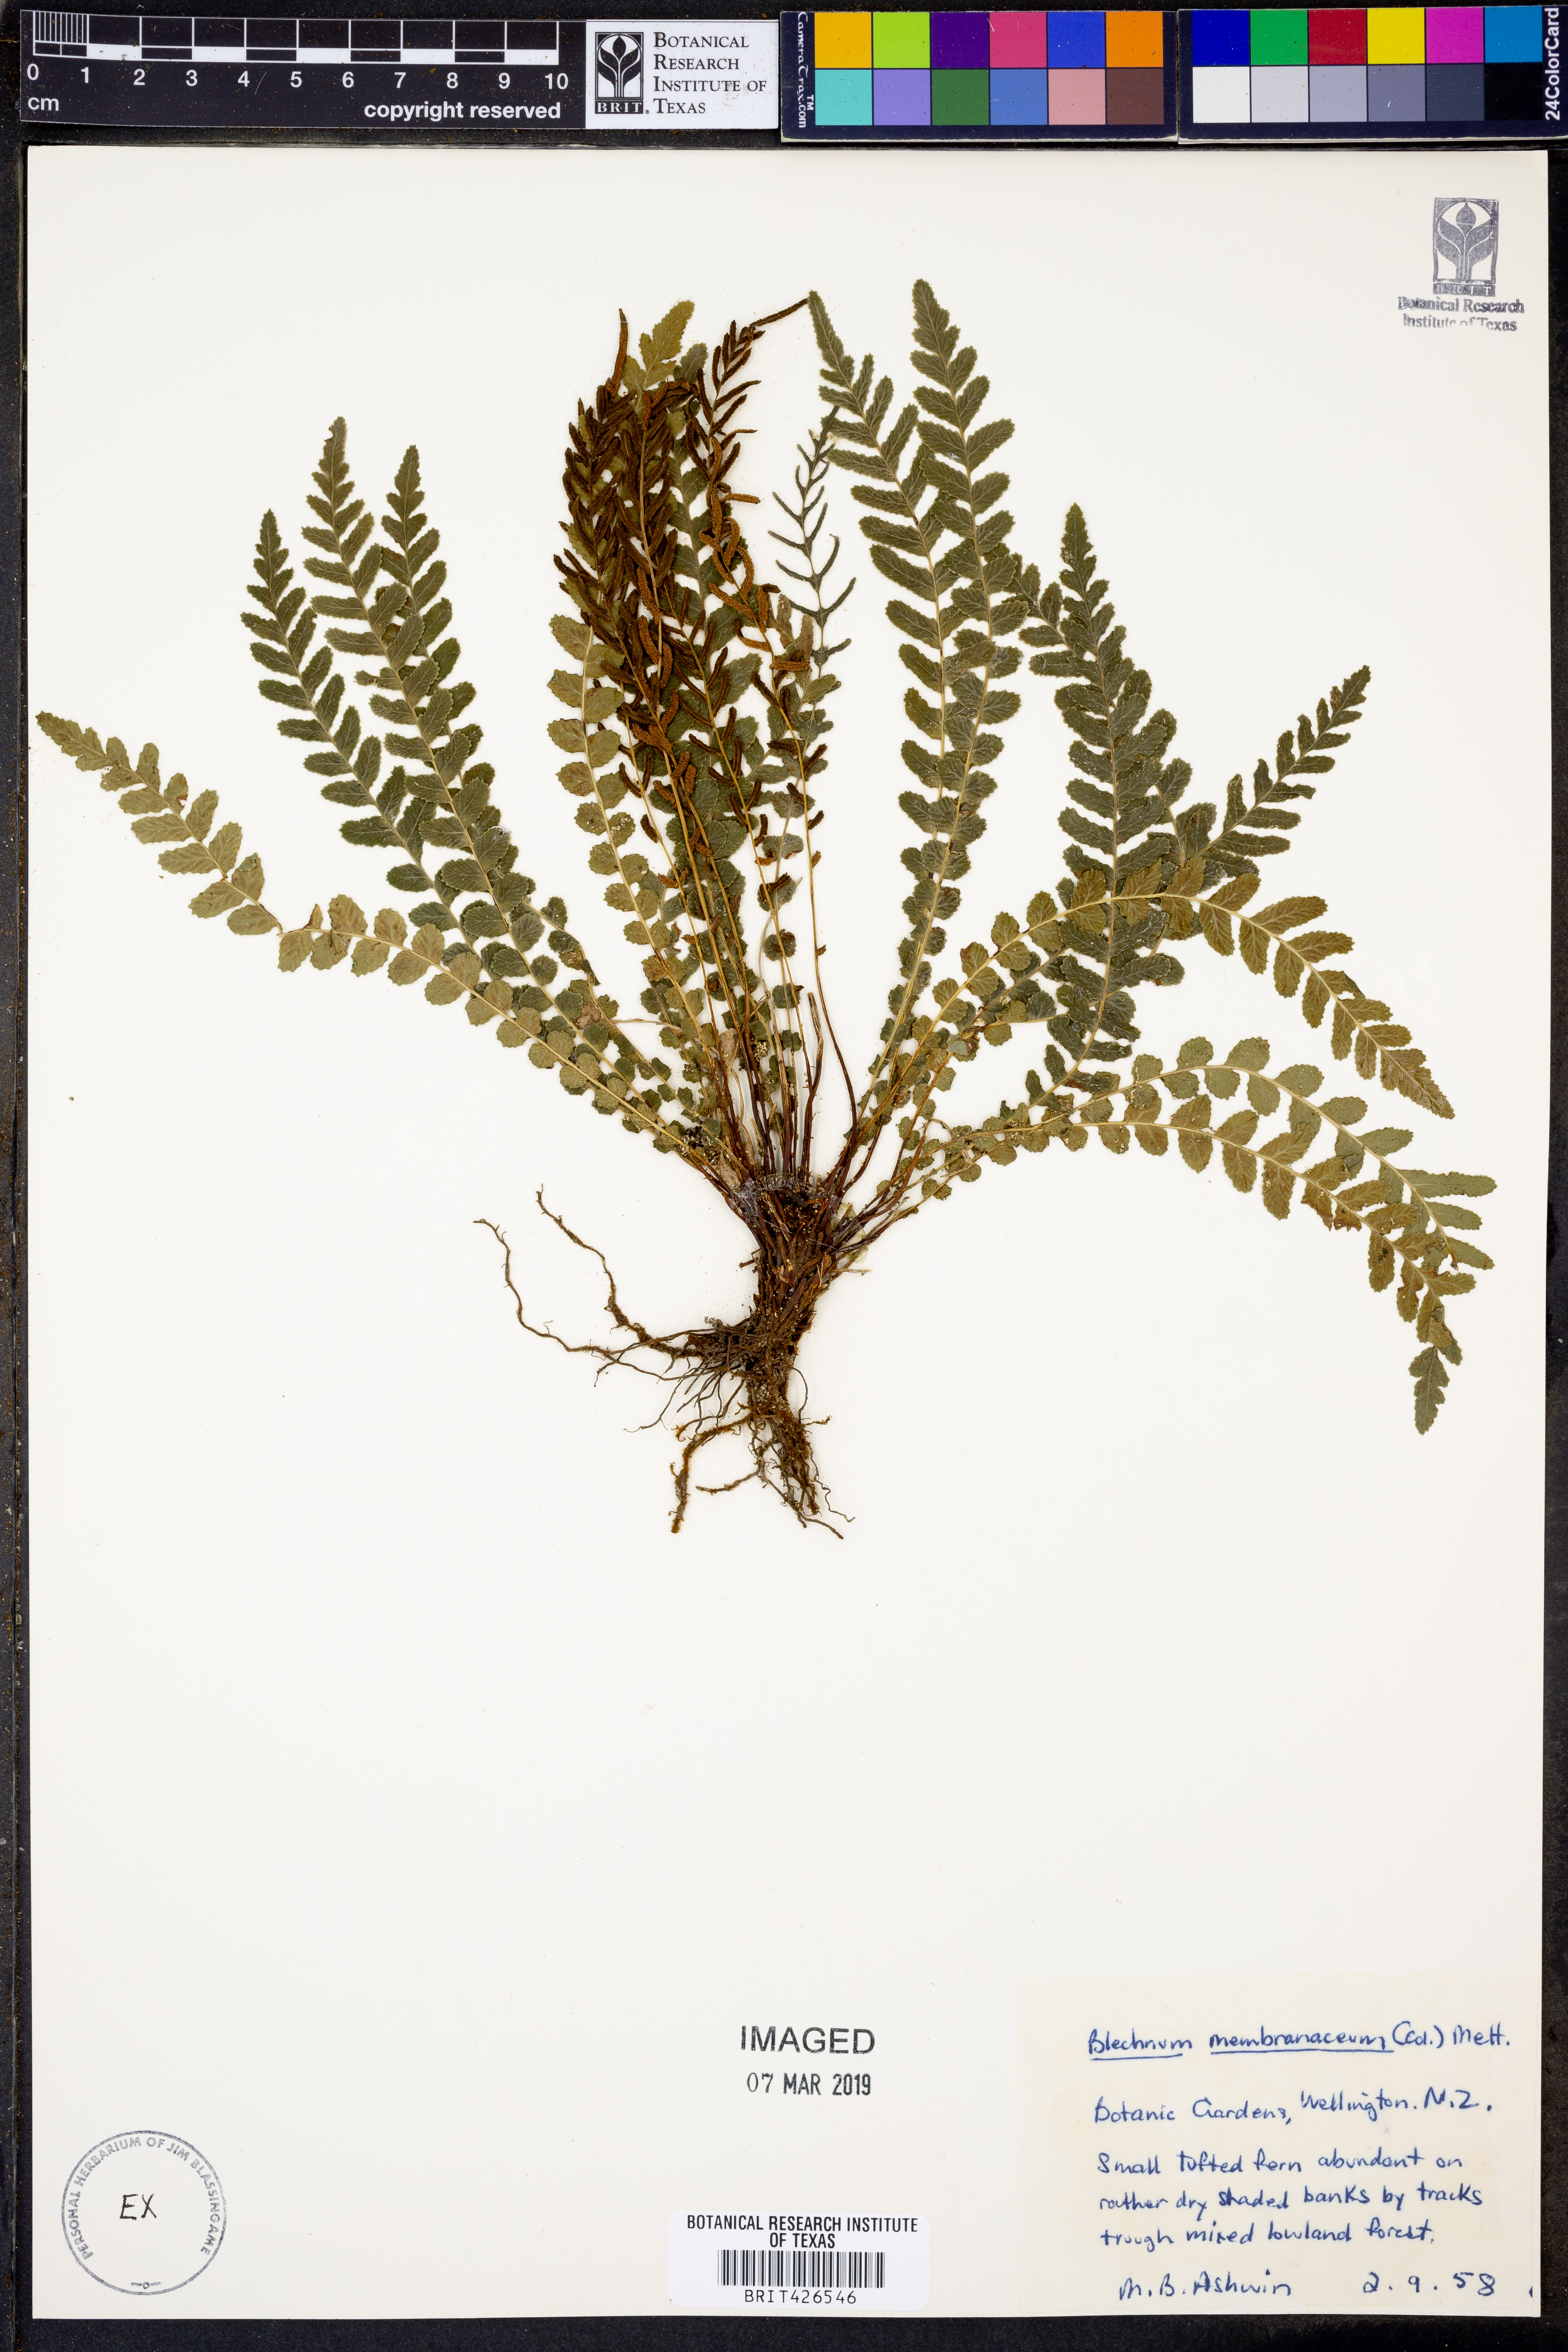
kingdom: Plantae
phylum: Tracheophyta
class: Polypodiopsida
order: Polypodiales
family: Blechnaceae
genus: Austroblechnum
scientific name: Austroblechnum membranaceum
